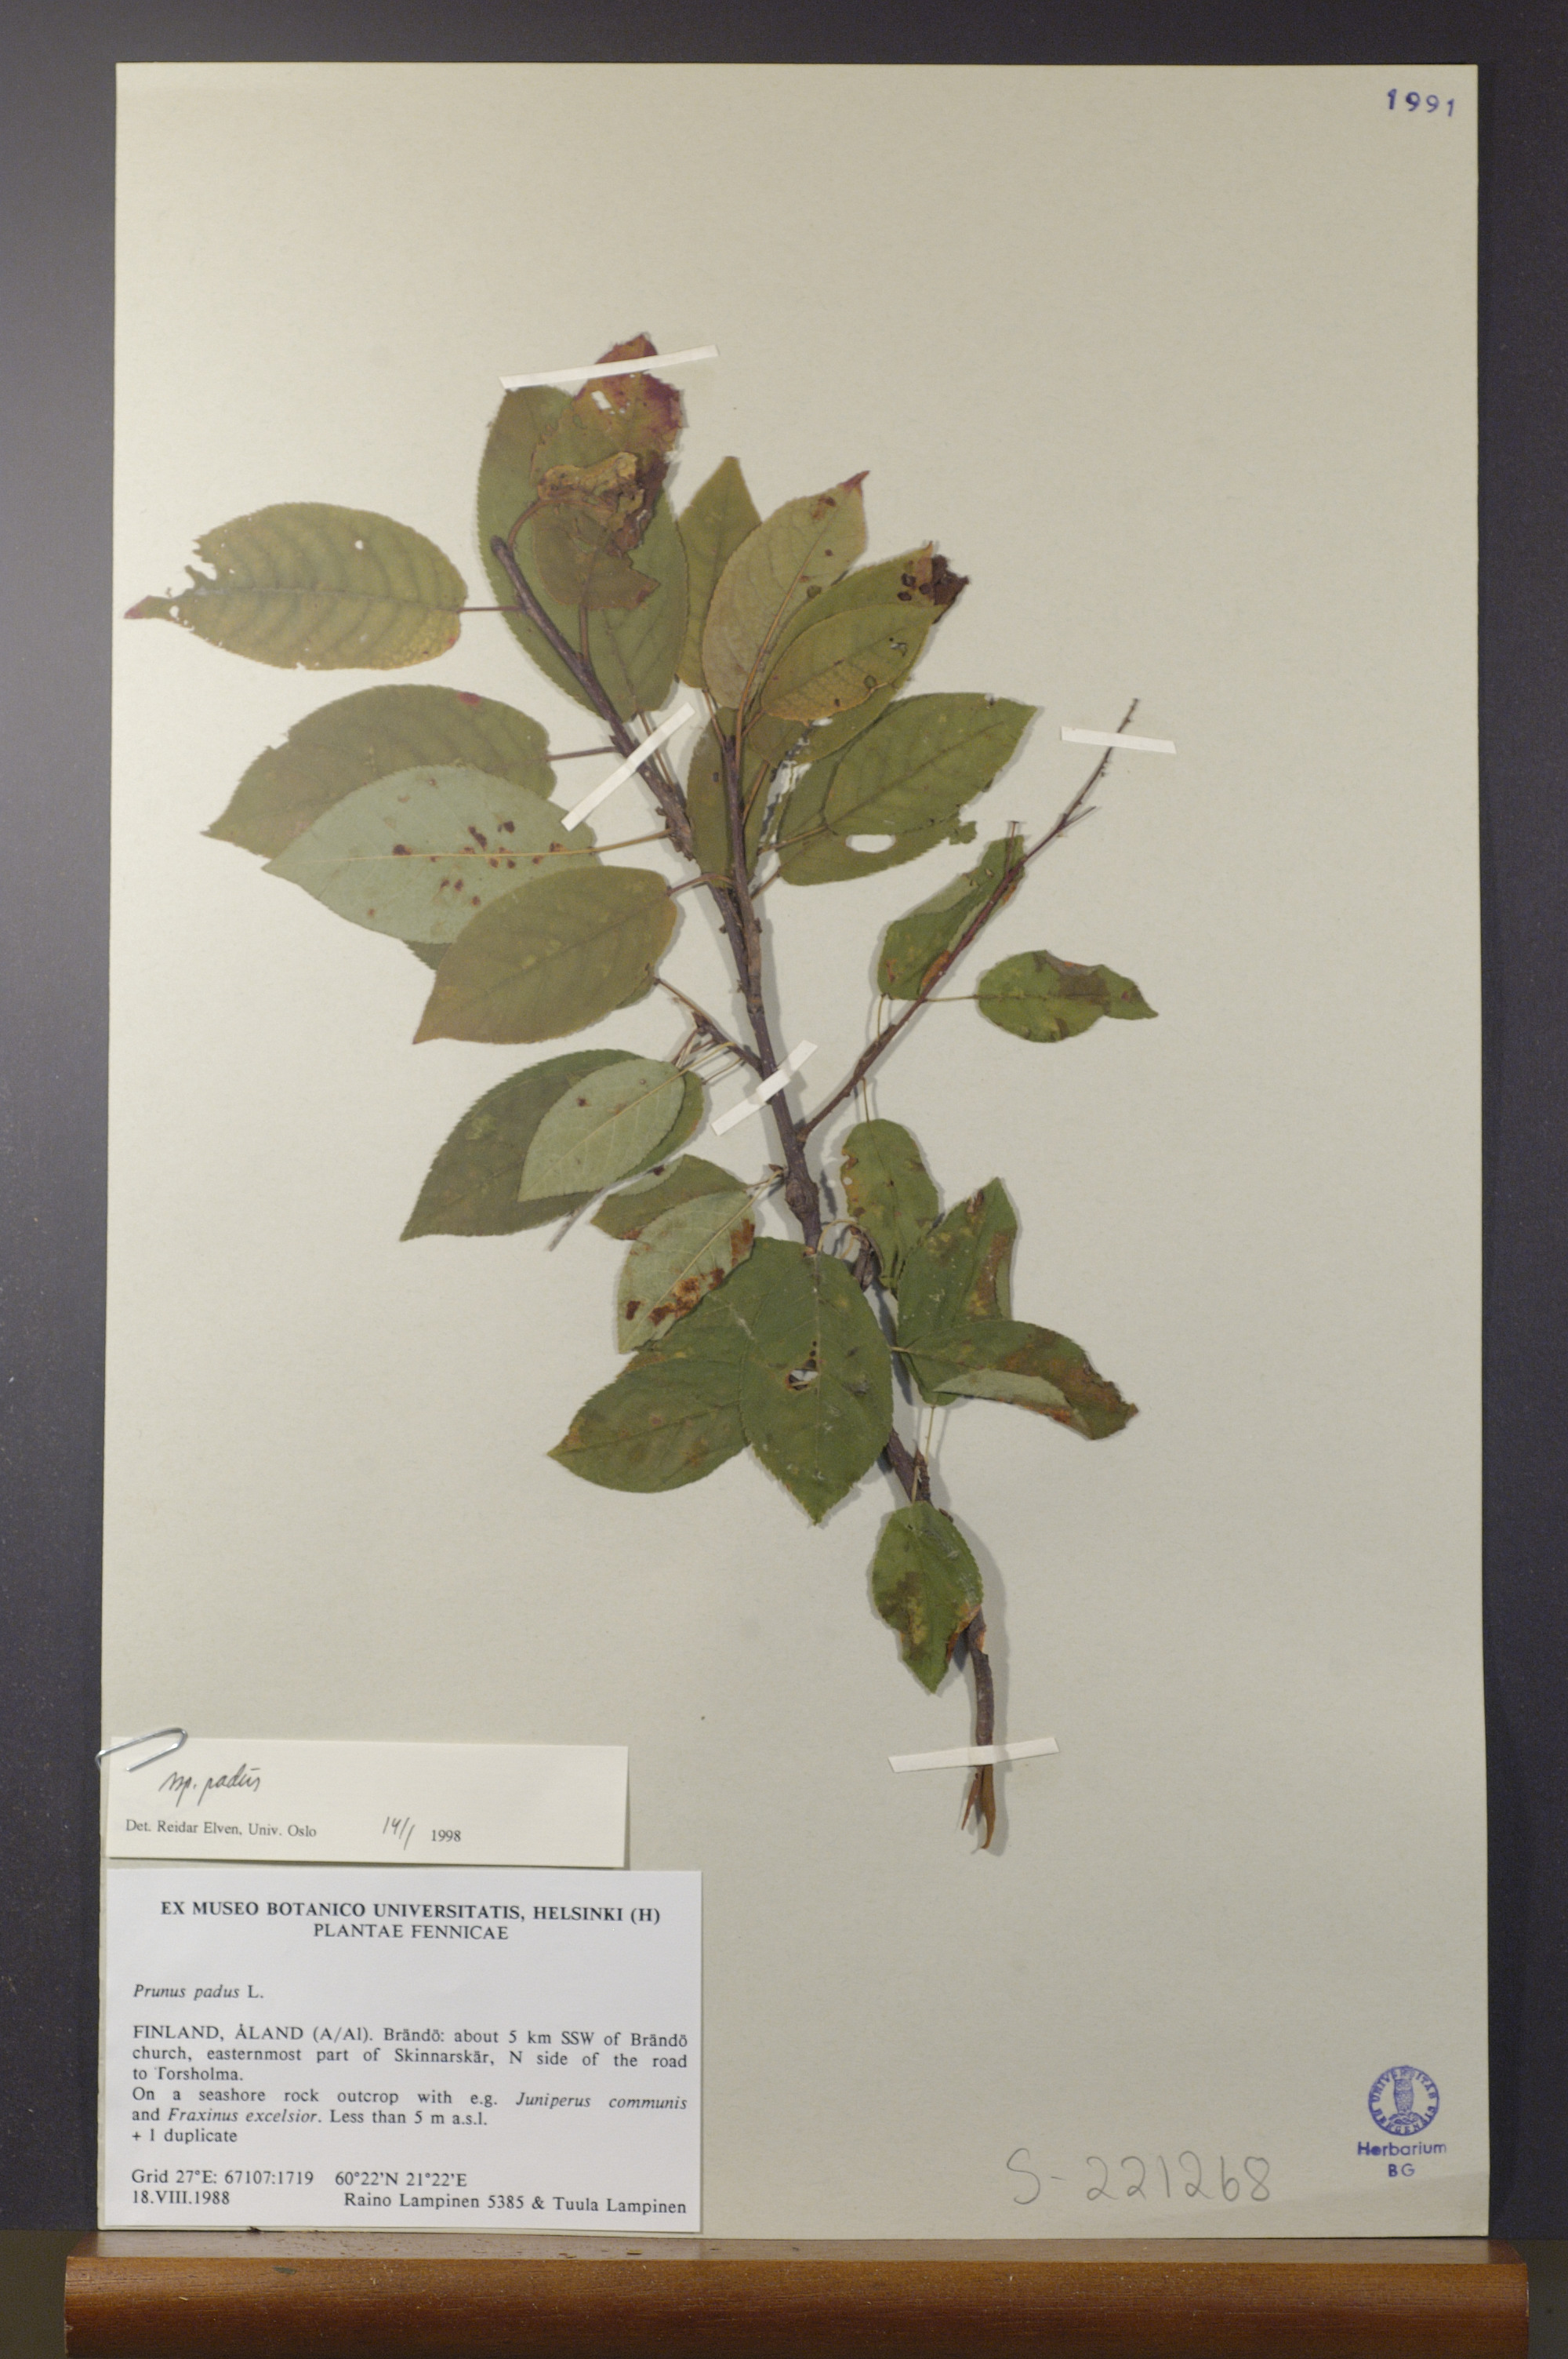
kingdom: Plantae
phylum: Tracheophyta
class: Magnoliopsida
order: Rosales
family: Rosaceae
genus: Prunus
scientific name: Prunus padus
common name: Bird cherry
